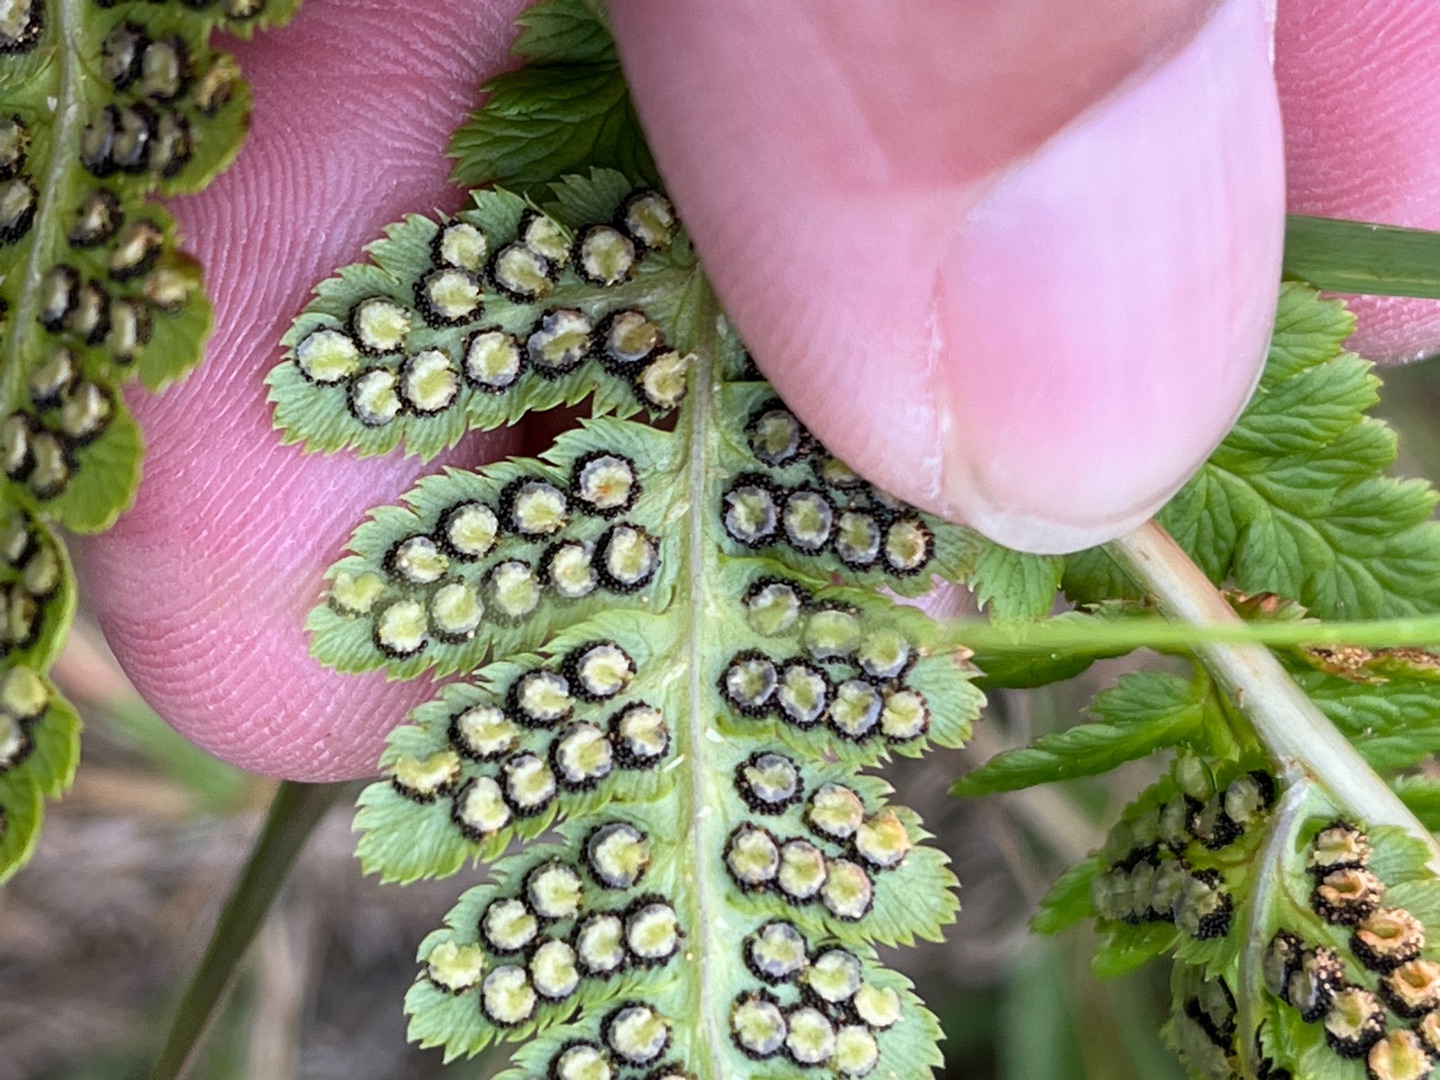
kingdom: Plantae
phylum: Tracheophyta
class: Polypodiopsida
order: Polypodiales
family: Dryopteridaceae
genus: Dryopteris
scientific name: Dryopteris cristata
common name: Butfinnet mangeløv
